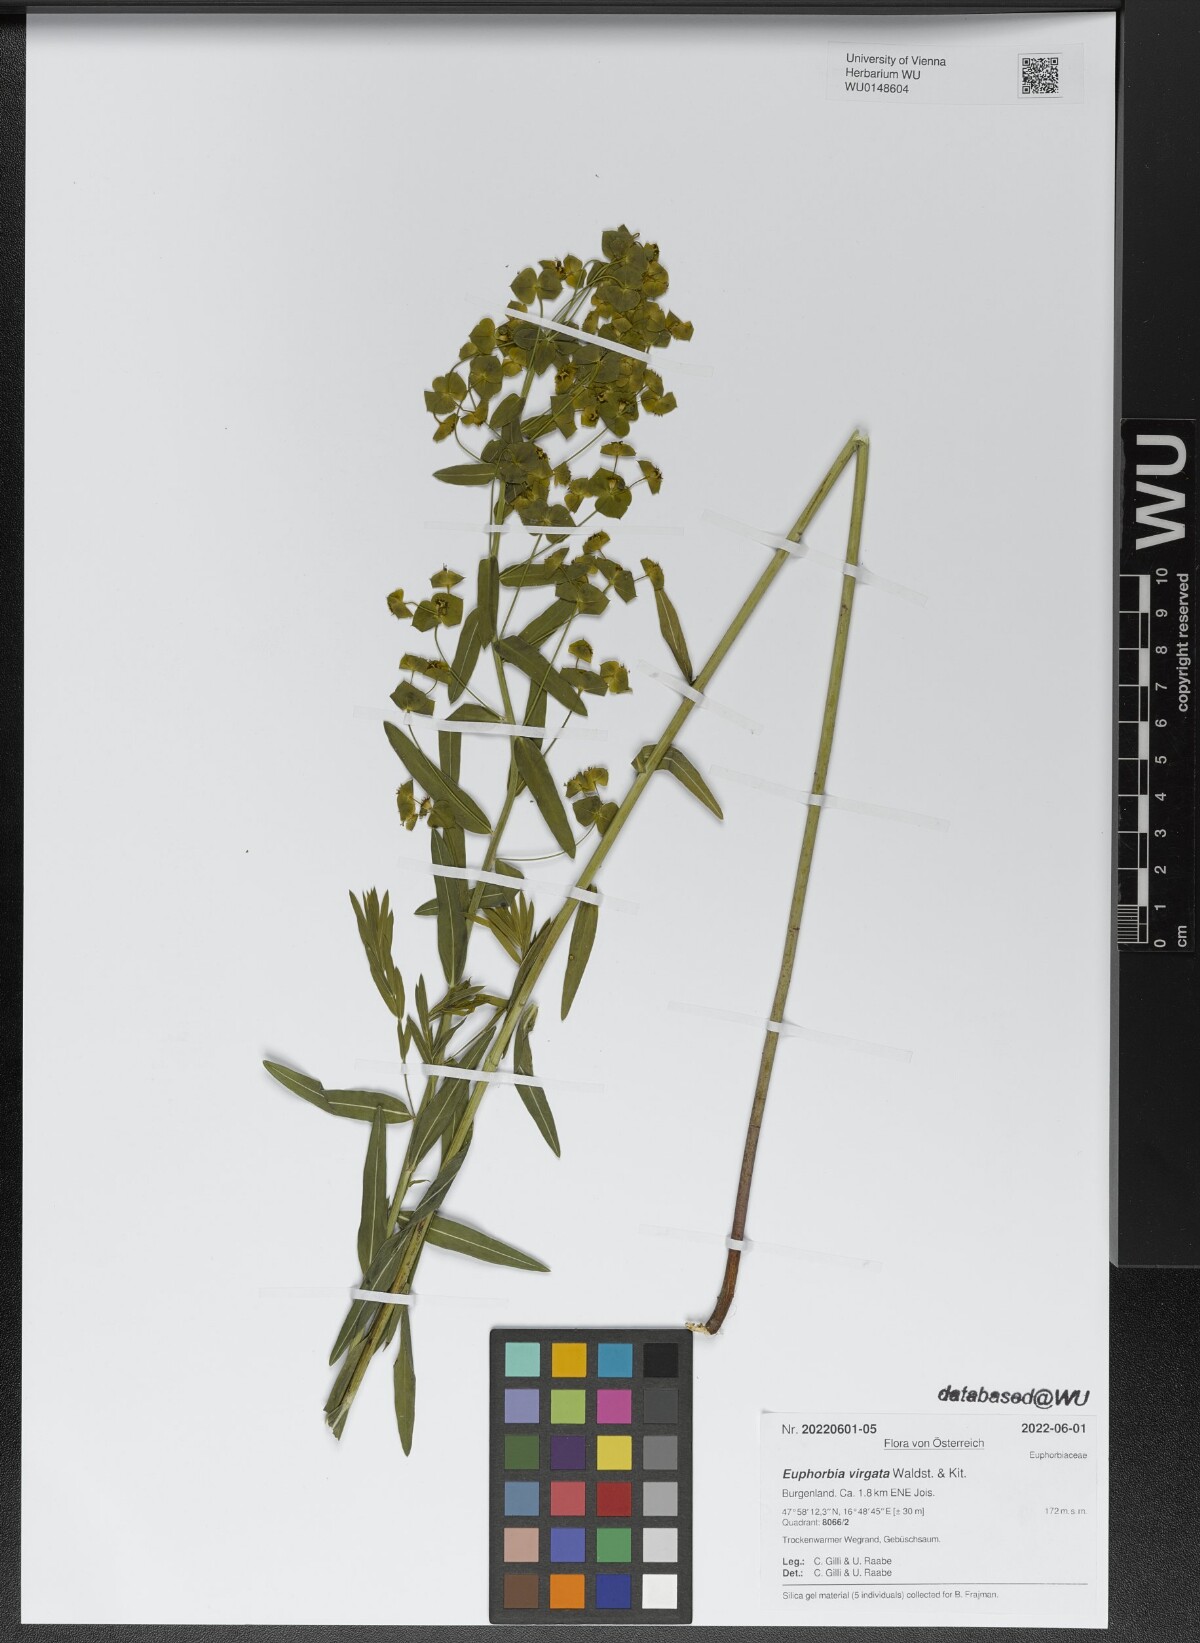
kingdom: Plantae
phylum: Tracheophyta
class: Magnoliopsida
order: Malpighiales
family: Euphorbiaceae
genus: Euphorbia
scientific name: Euphorbia virgata
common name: Leafy spurge
